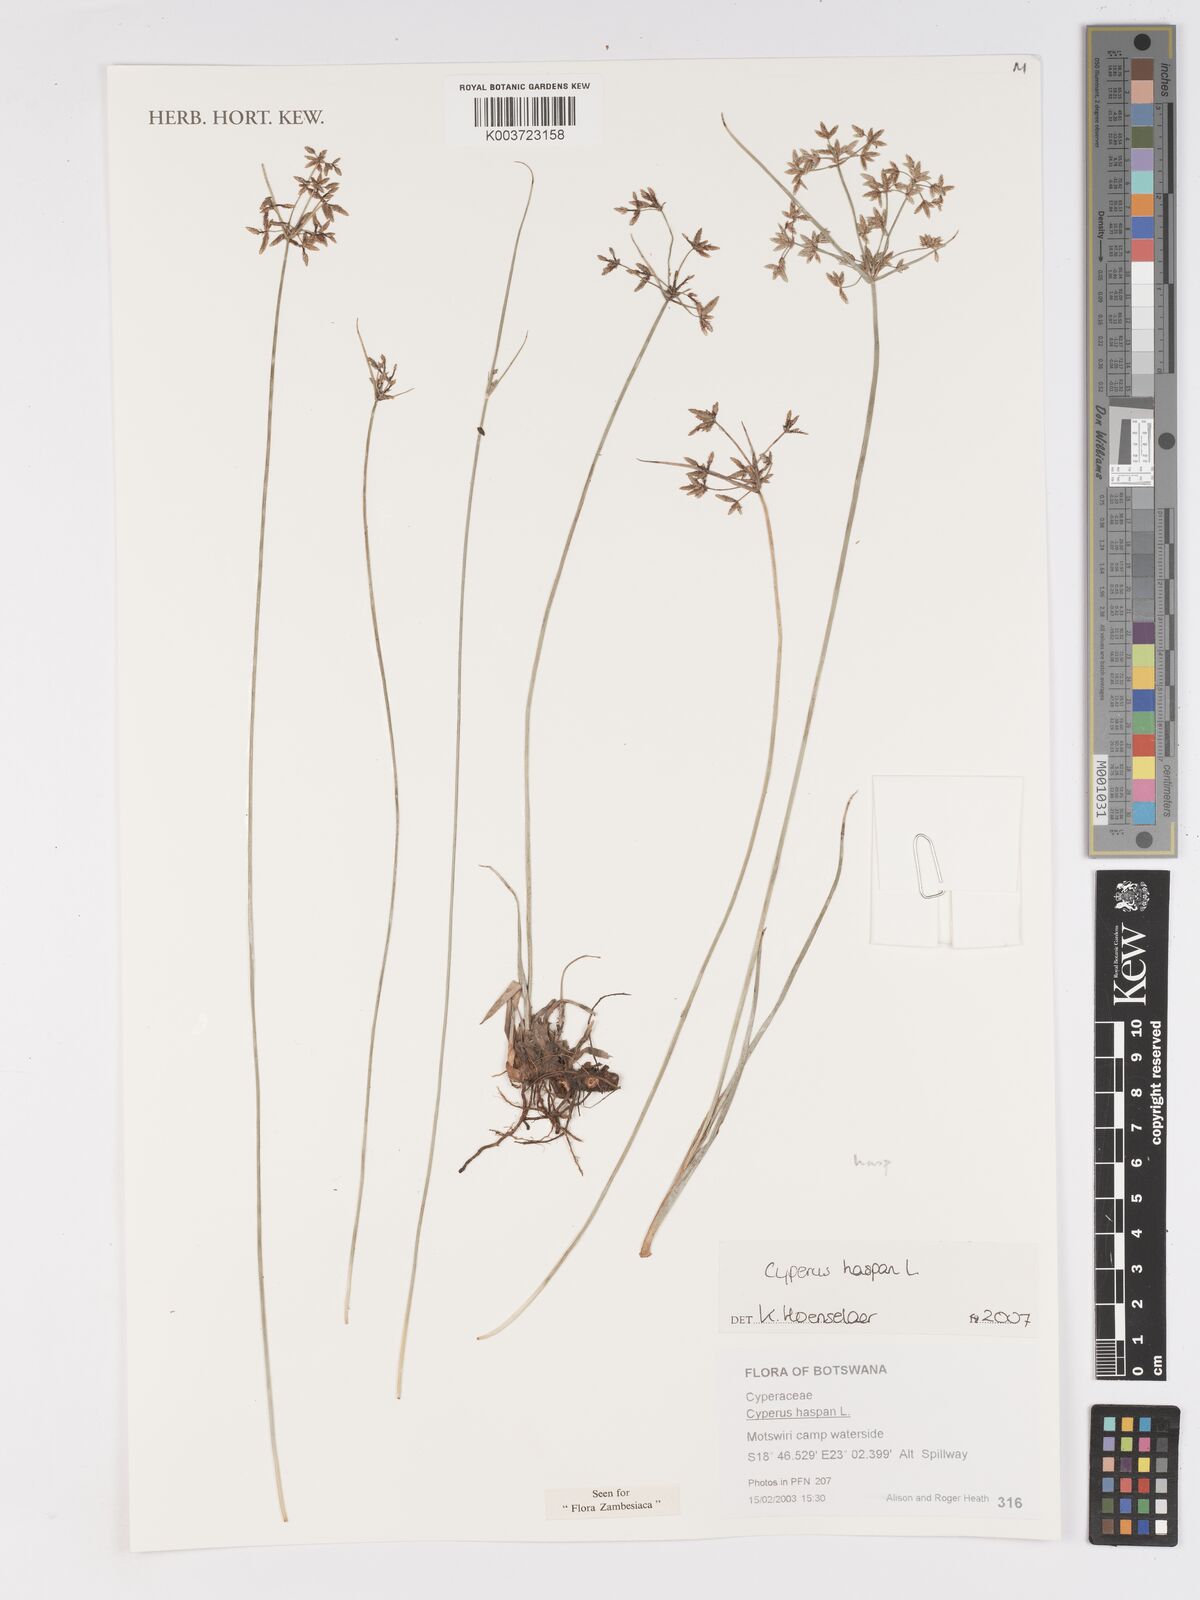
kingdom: Plantae
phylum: Tracheophyta
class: Liliopsida
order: Poales
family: Cyperaceae
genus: Cyperus
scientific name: Cyperus haspan
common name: Haspan flatsedge
